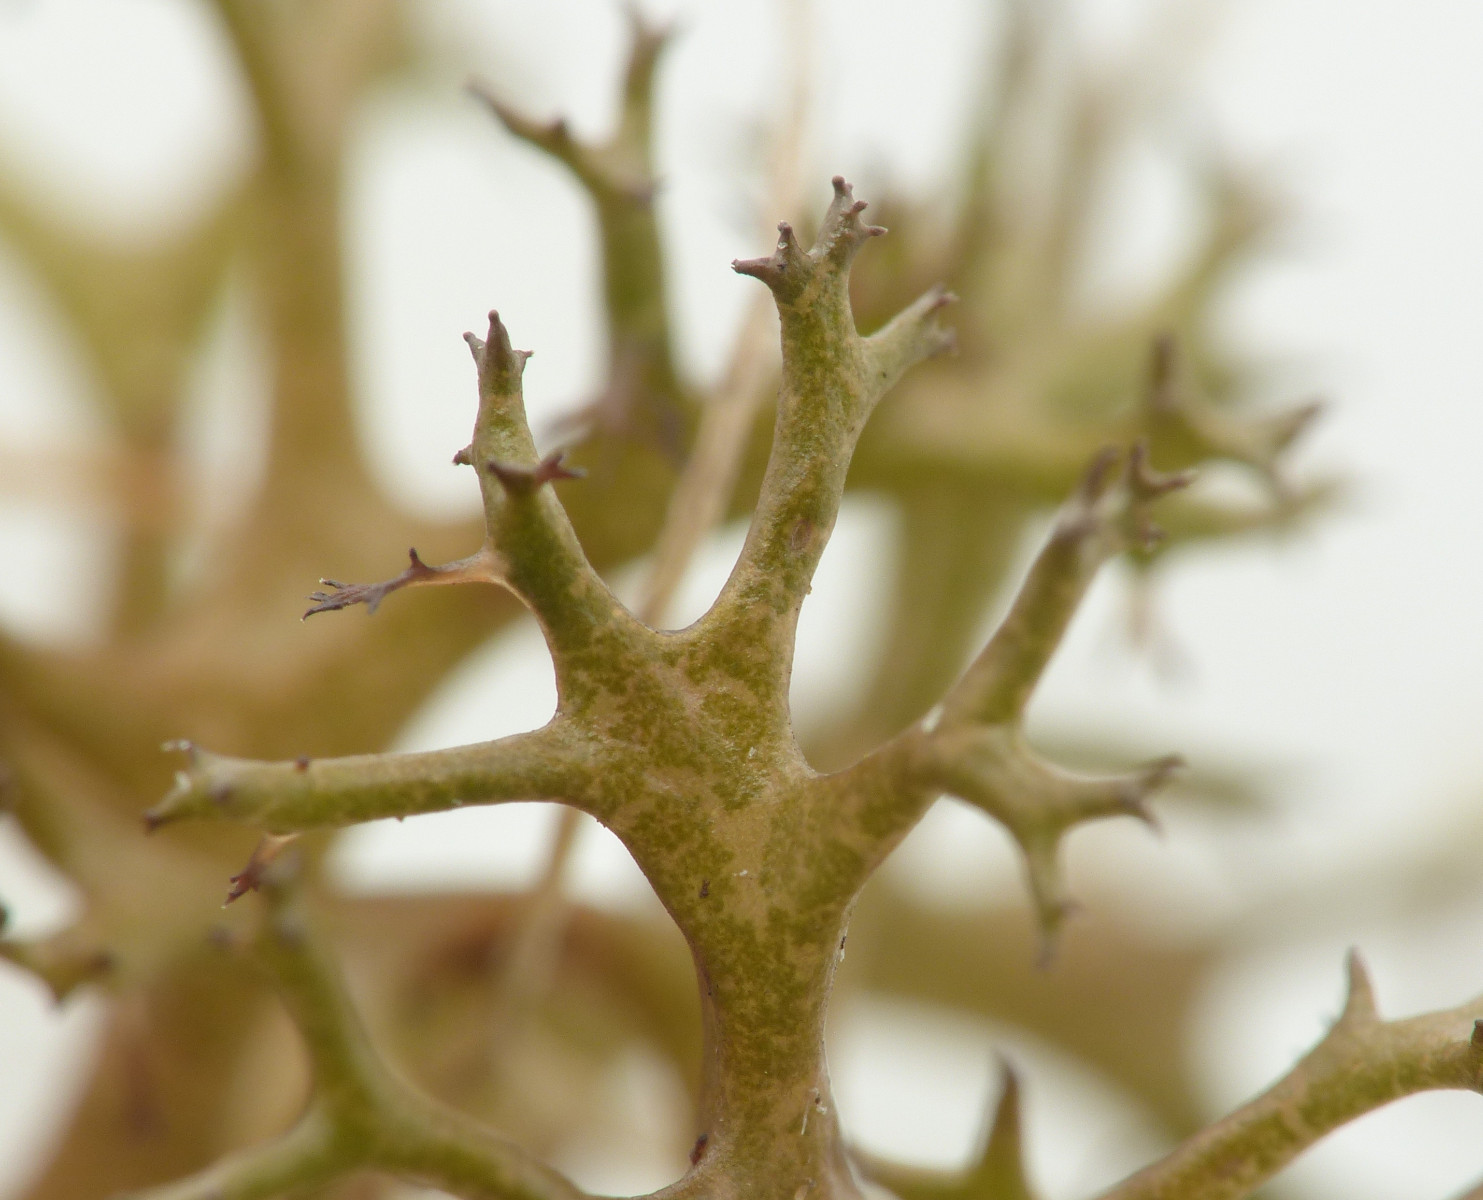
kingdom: Fungi
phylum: Ascomycota
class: Lecanoromycetes
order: Lecanorales
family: Parmeliaceae
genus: Cetraria
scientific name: Cetraria aculeata
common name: grubet tjørnelav
